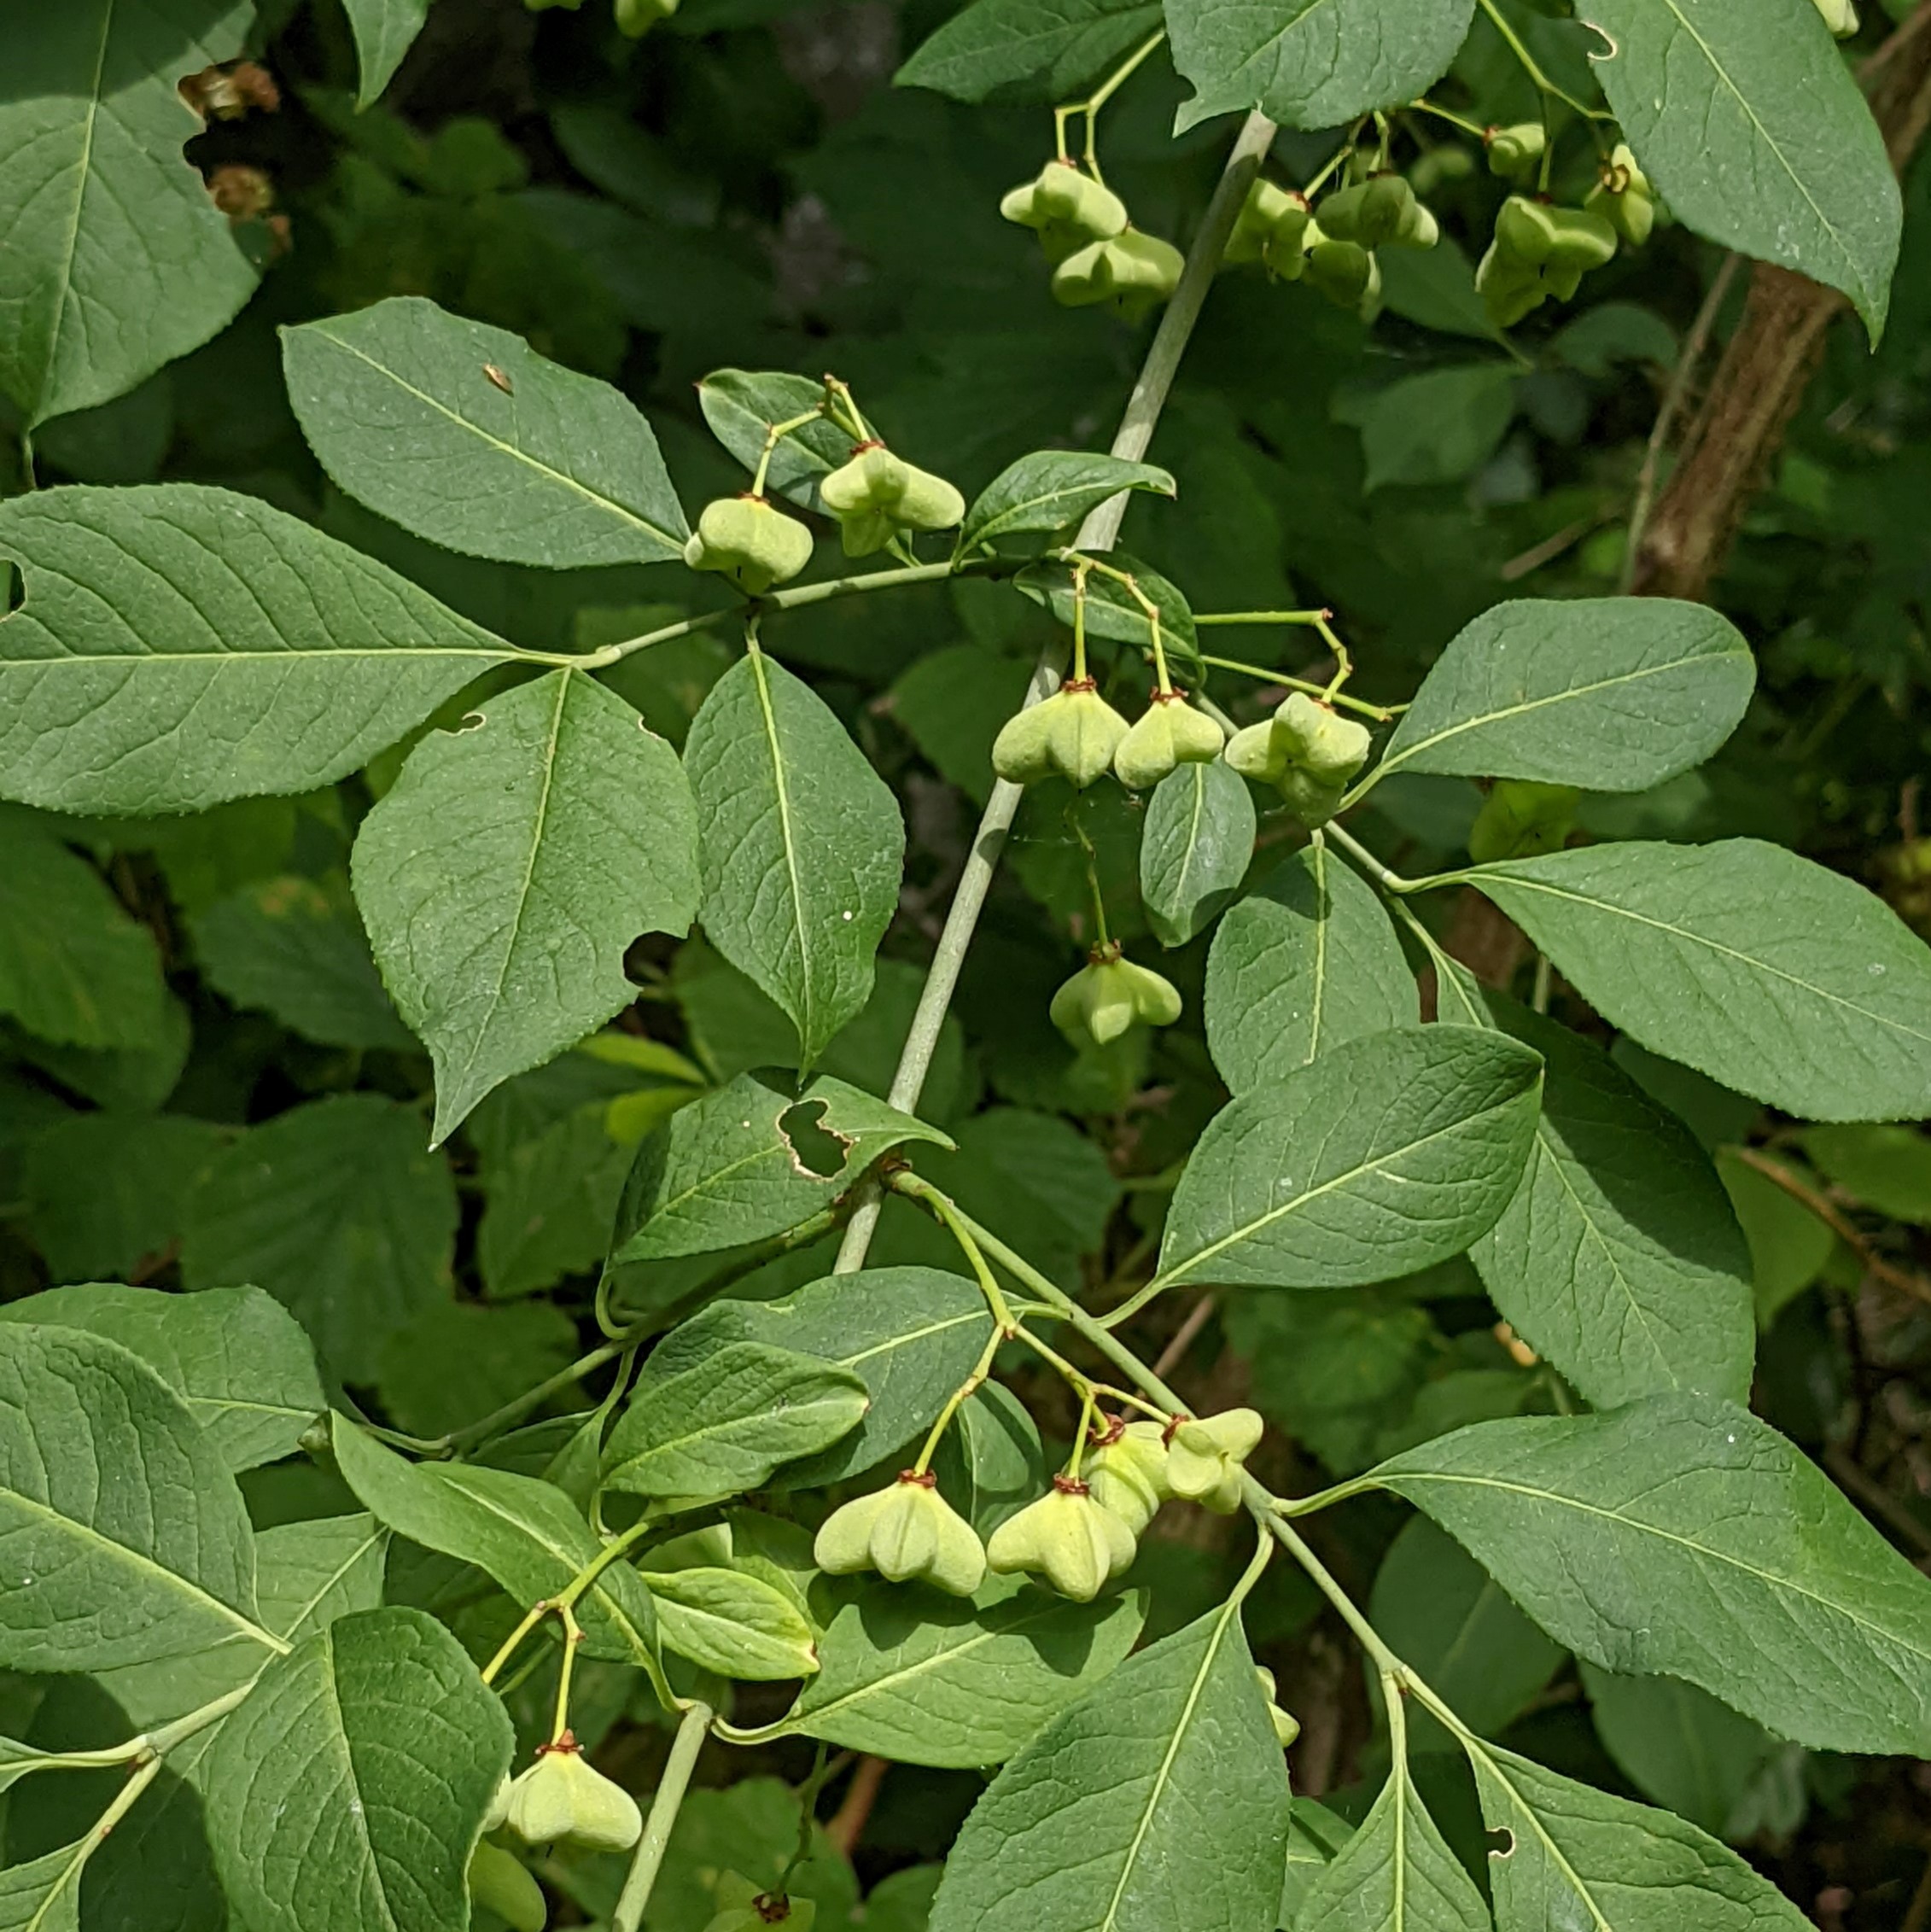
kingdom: Plantae
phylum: Tracheophyta
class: Magnoliopsida
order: Celastrales
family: Celastraceae
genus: Euonymus
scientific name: Euonymus europaeus
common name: Benved
